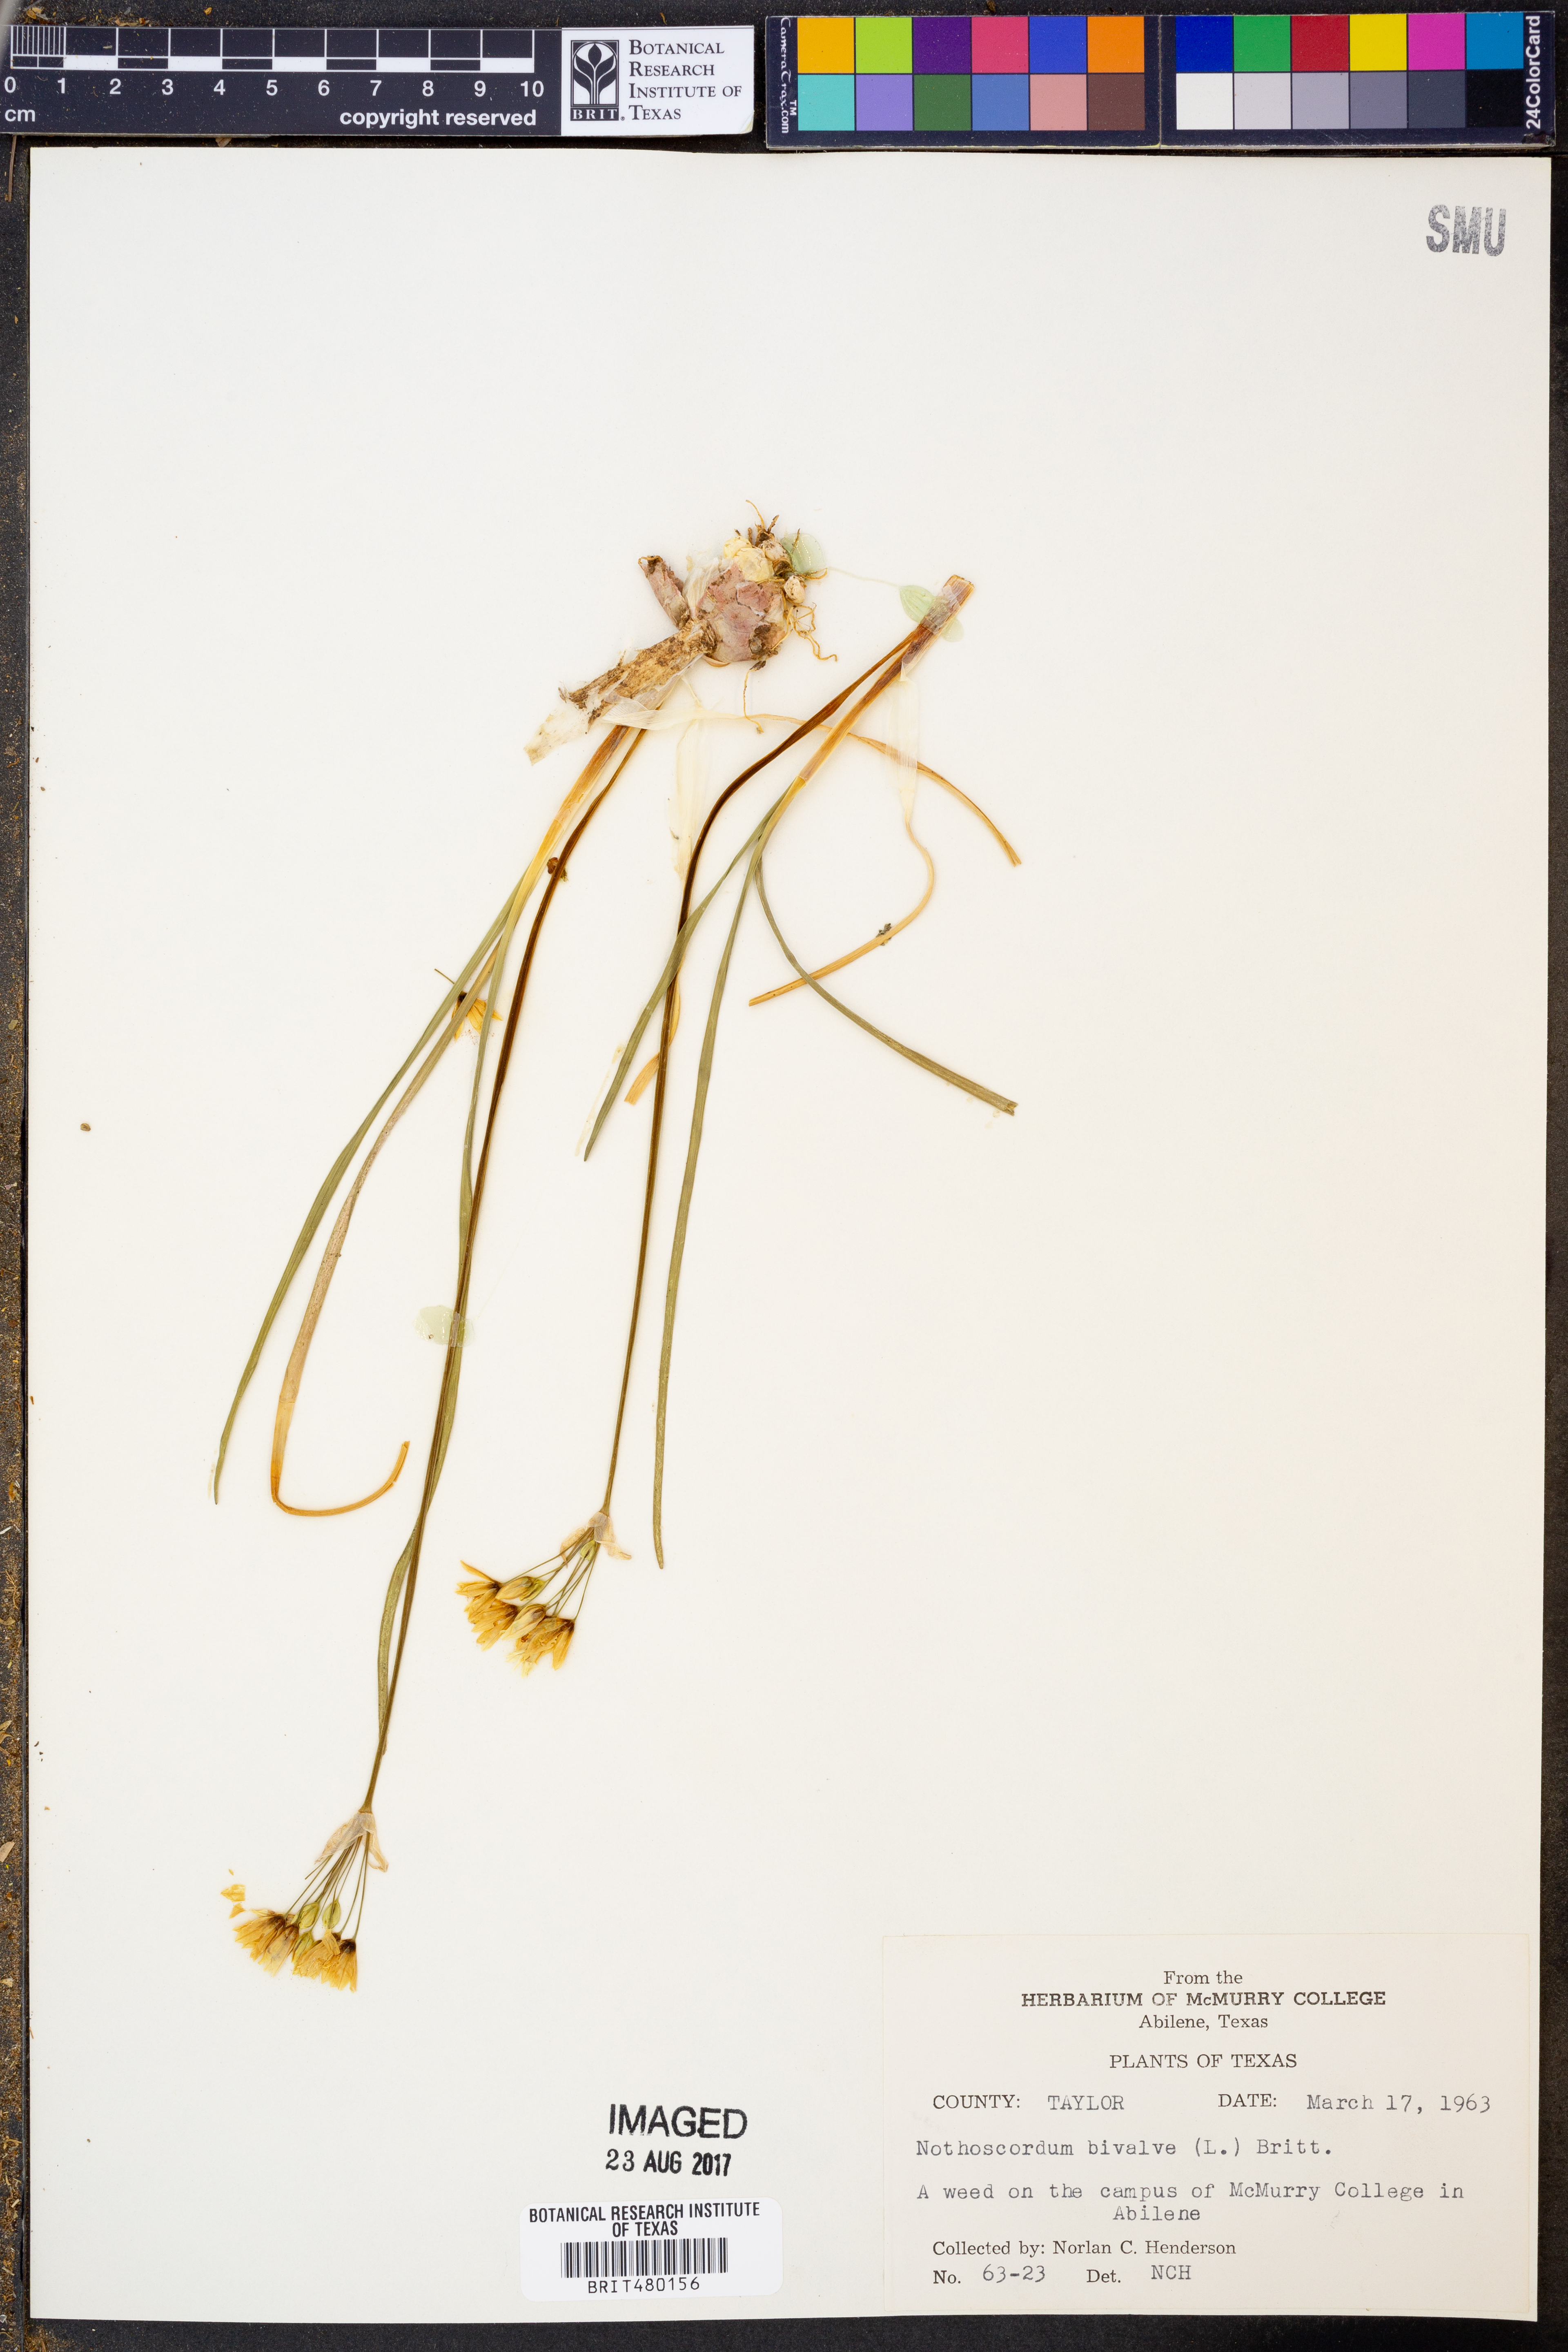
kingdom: Plantae
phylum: Tracheophyta
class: Liliopsida
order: Asparagales
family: Amaryllidaceae
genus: Nothoscordum
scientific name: Nothoscordum bivalve
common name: Crow-poison
